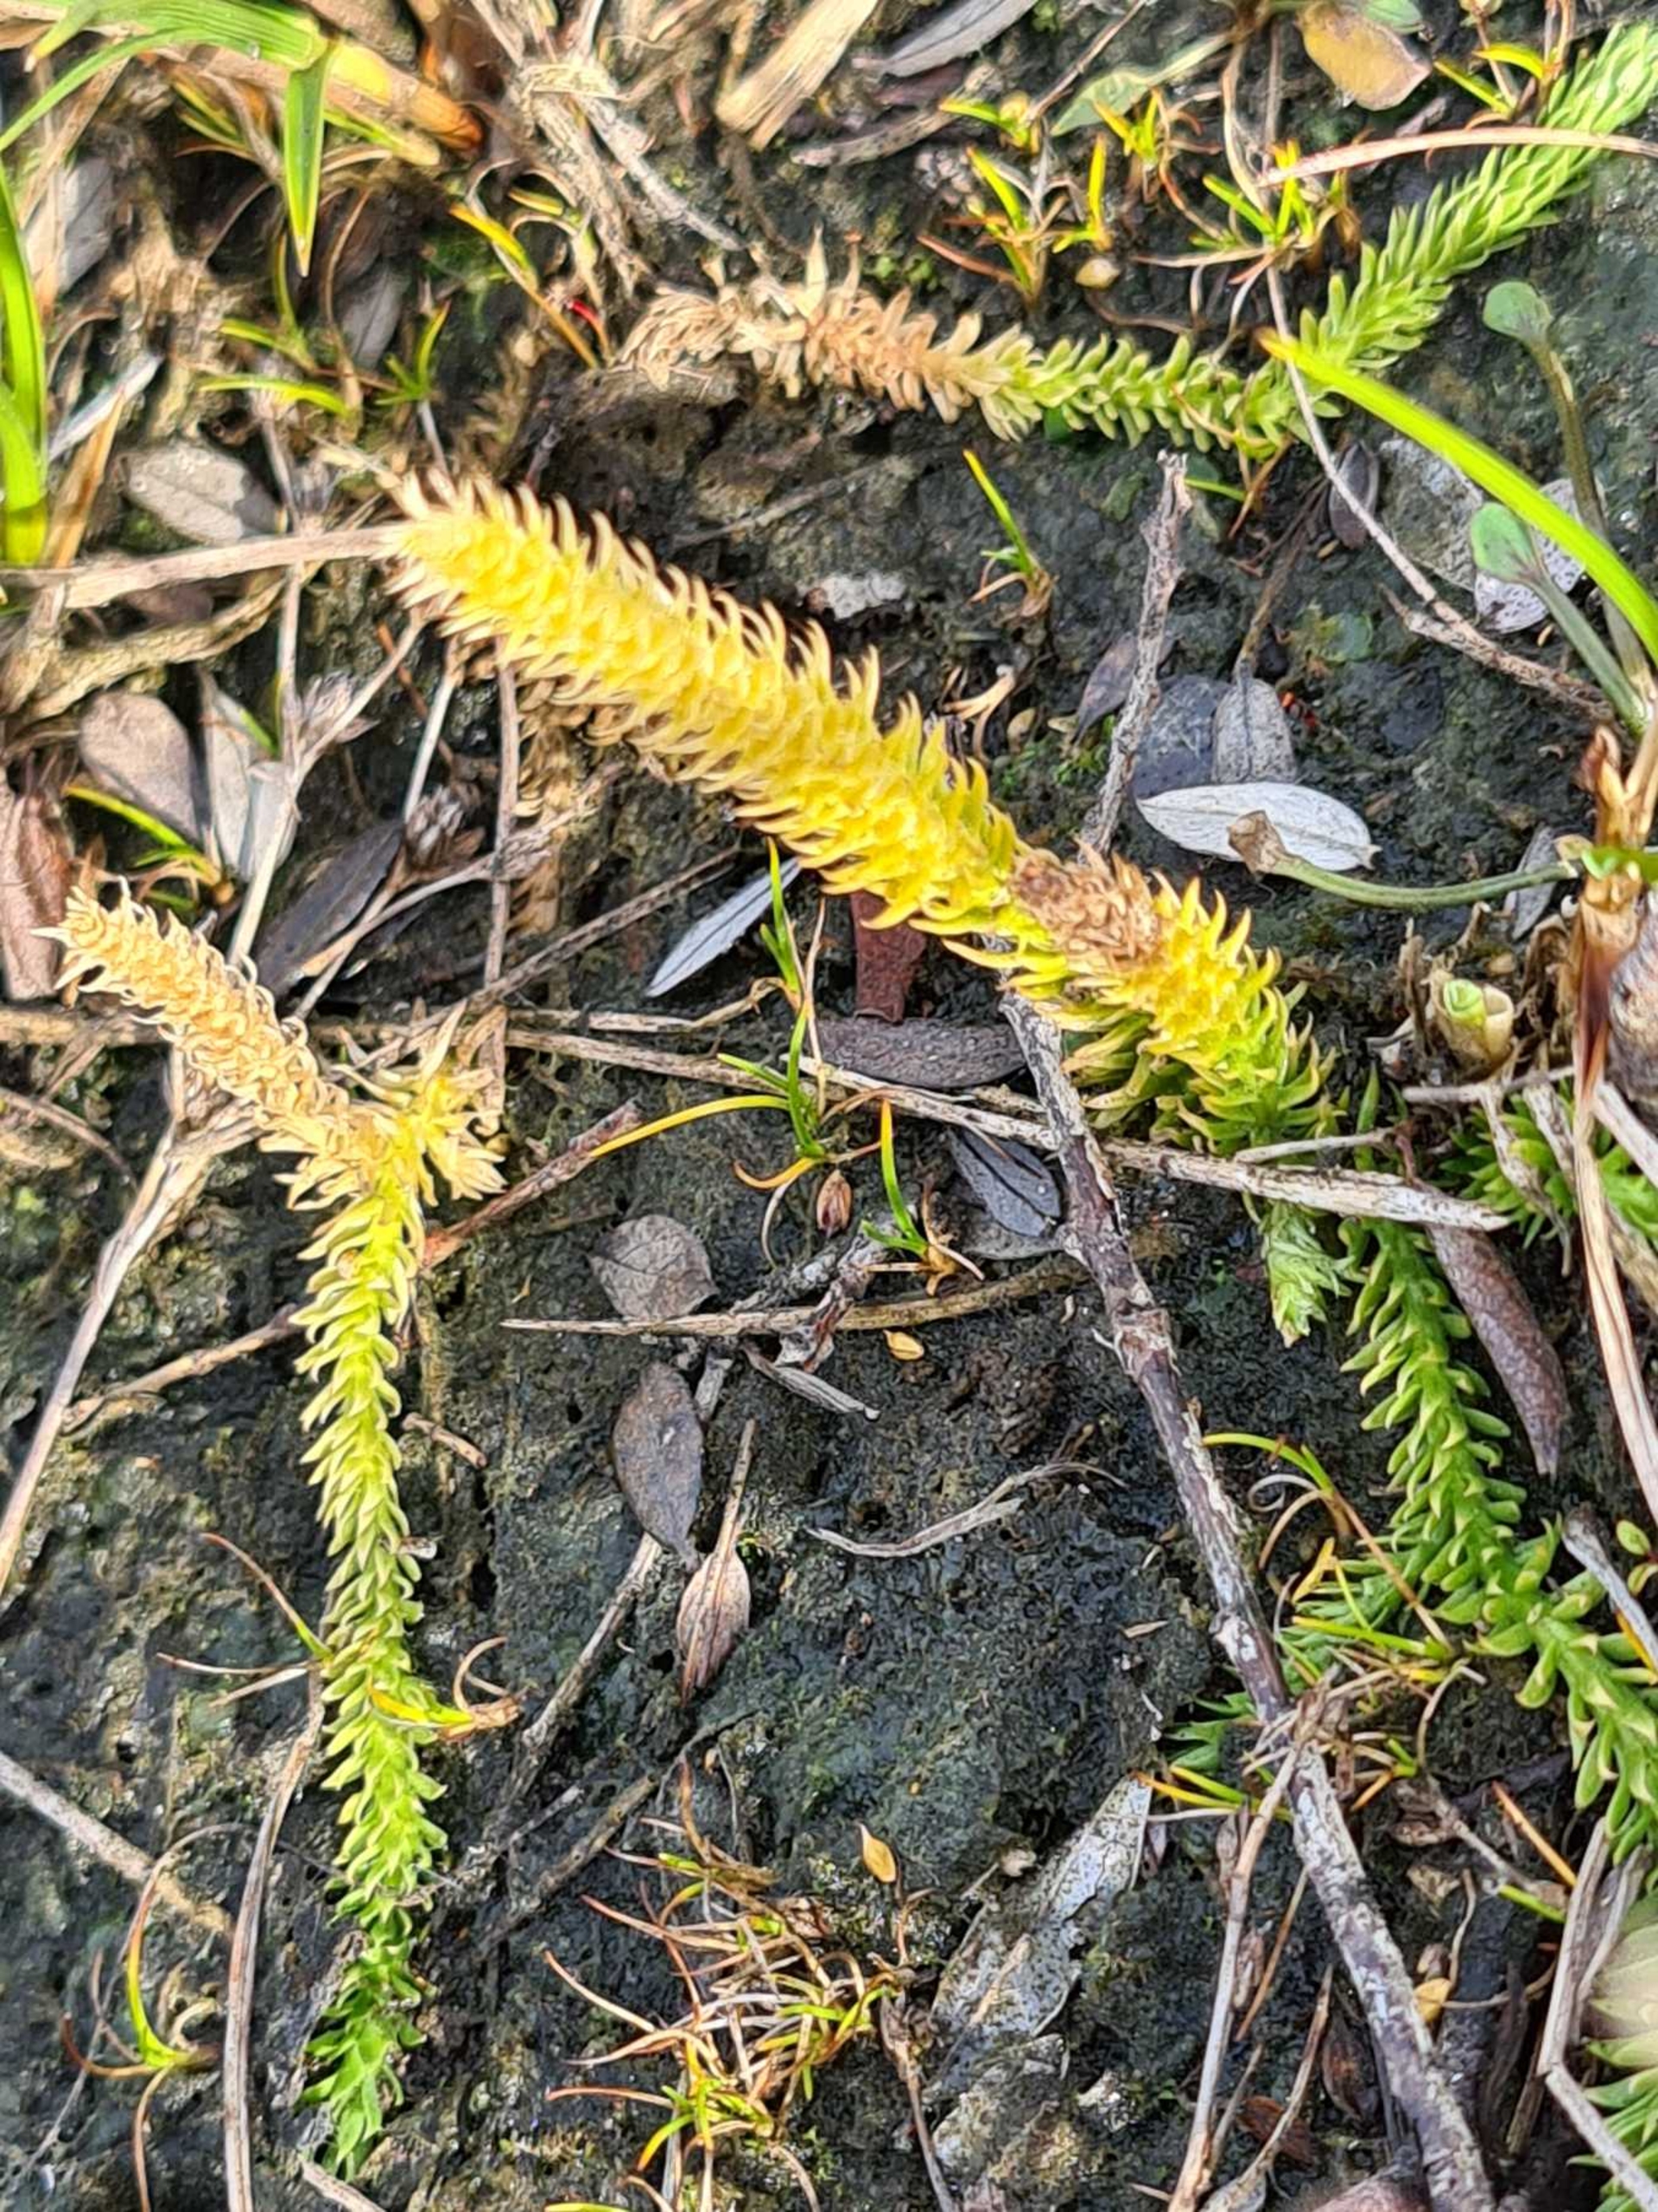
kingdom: Plantae
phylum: Tracheophyta
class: Lycopodiopsida
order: Lycopodiales
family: Lycopodiaceae
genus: Lycopodiella
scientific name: Lycopodiella inundata
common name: Liden ulvefod
